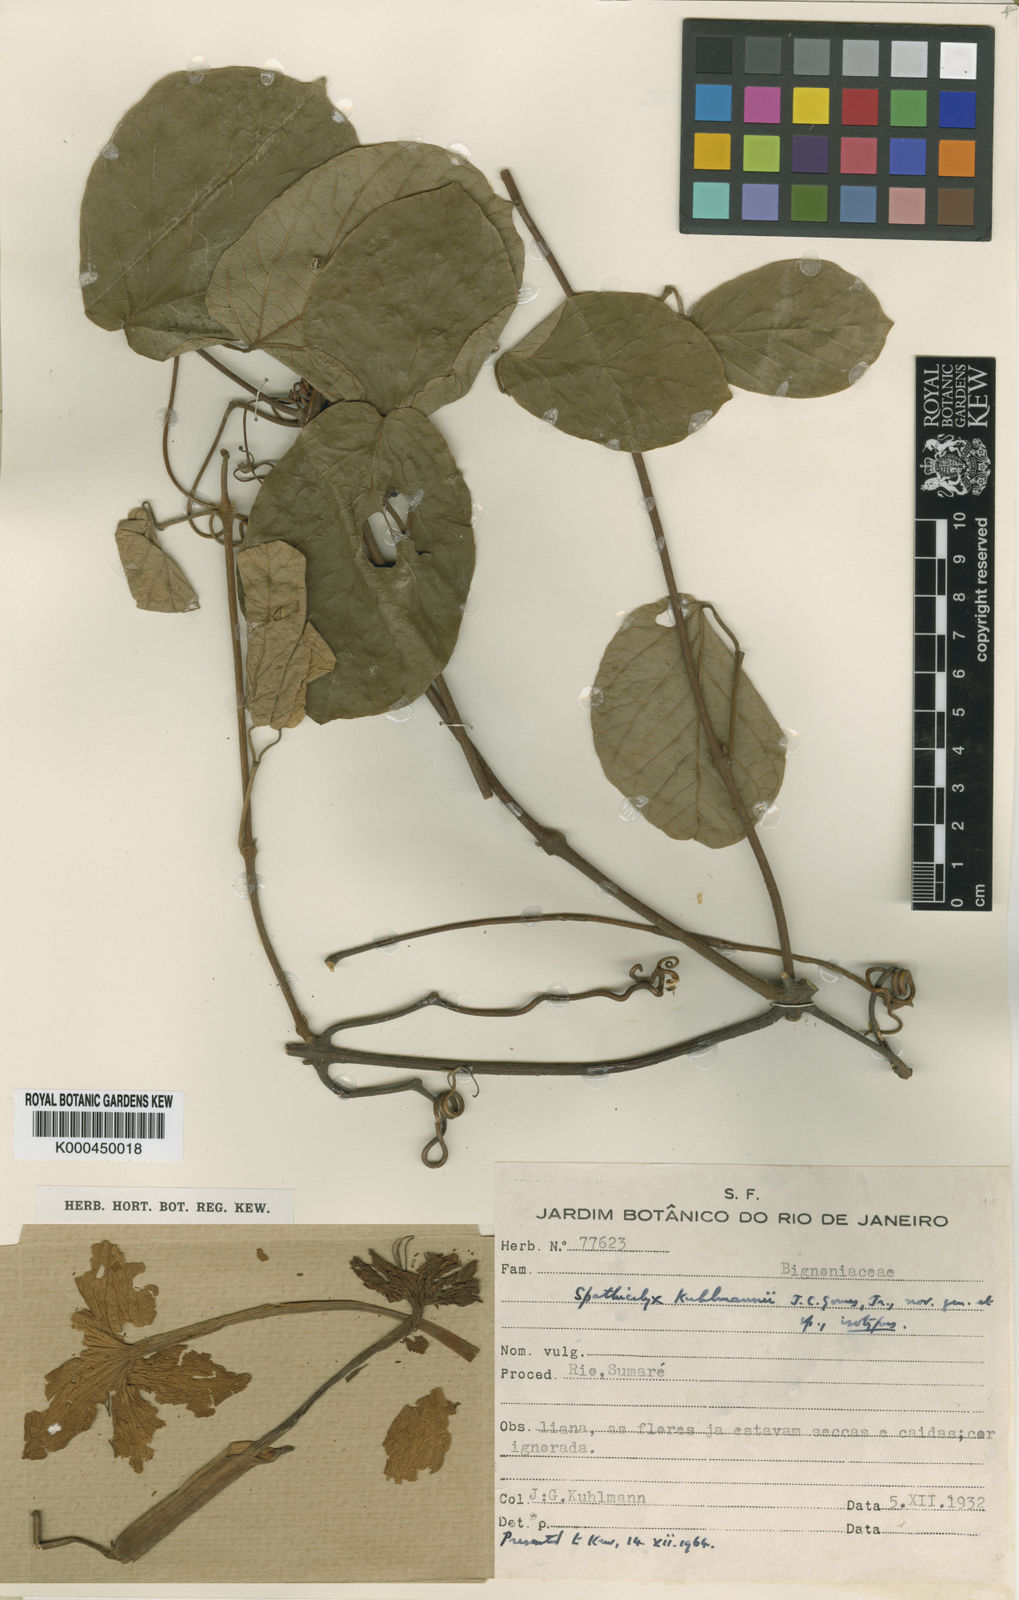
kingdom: Plantae
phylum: Tracheophyta
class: Magnoliopsida
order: Lamiales
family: Bignoniaceae
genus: Tanaecium
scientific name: Tanaecium
